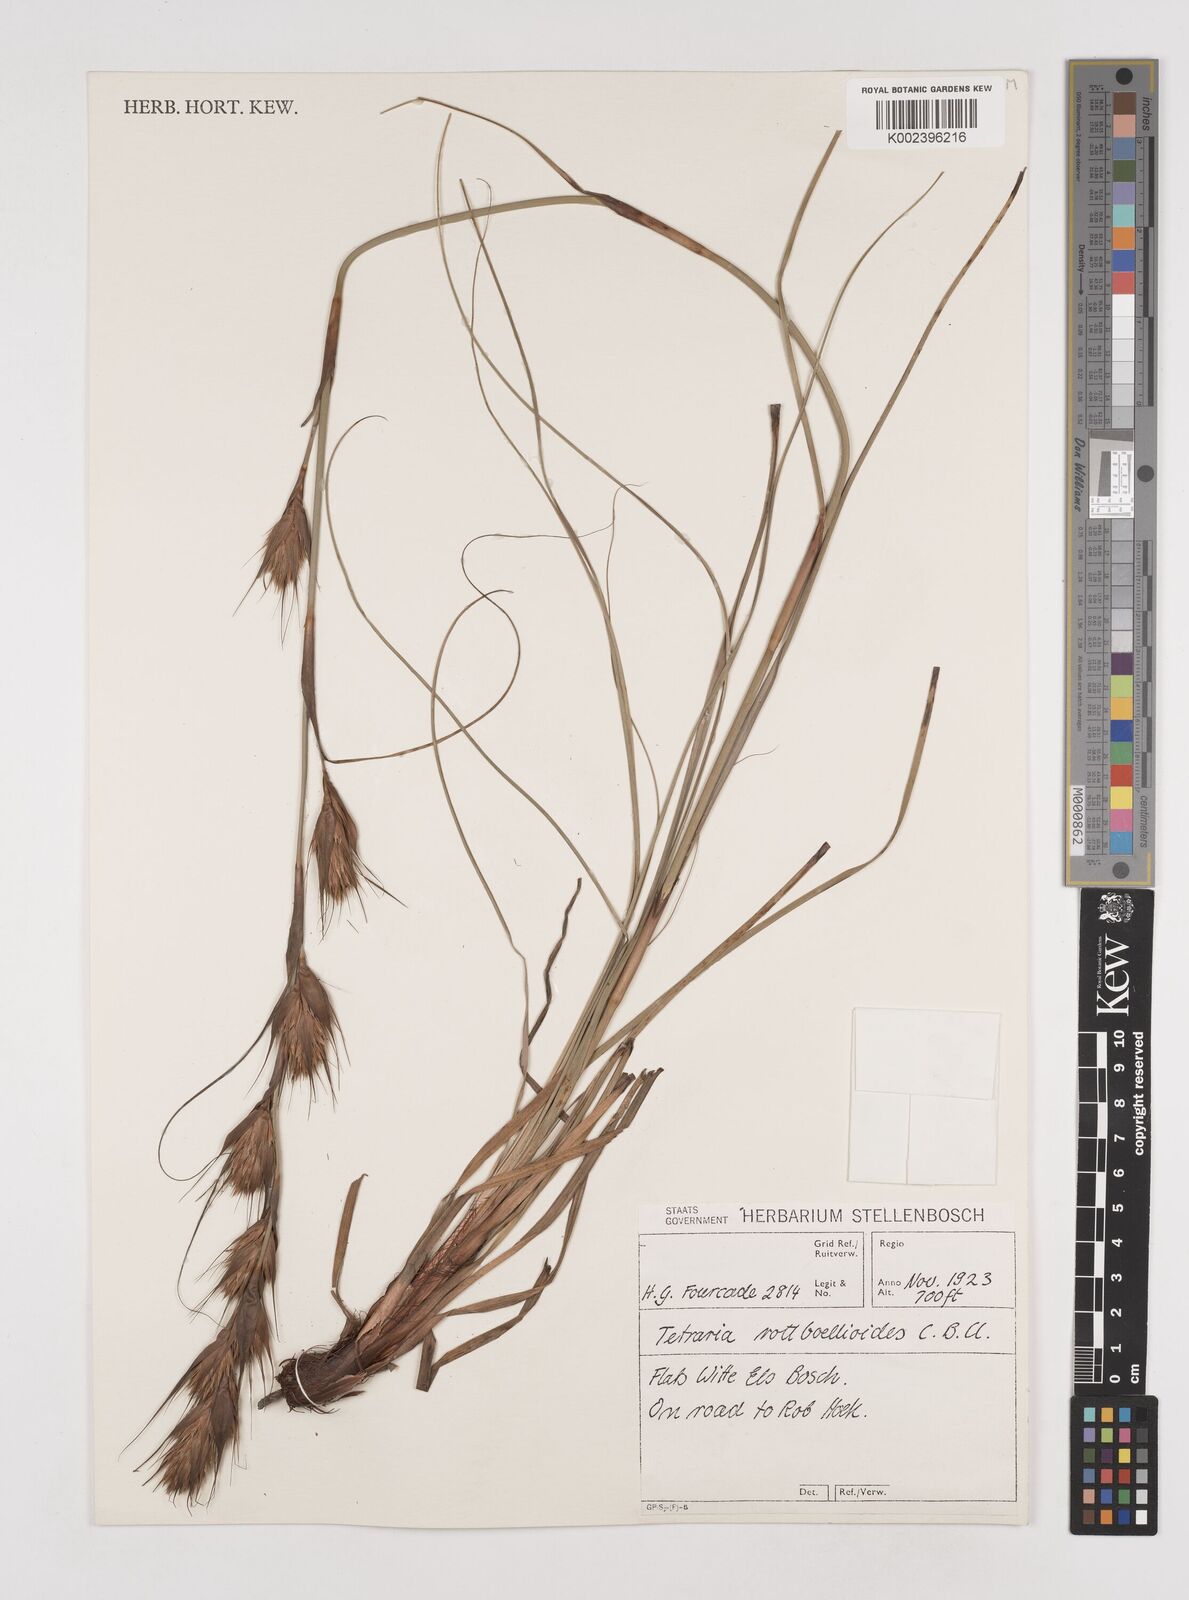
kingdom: Plantae
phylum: Tracheophyta
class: Liliopsida
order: Poales
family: Cyperaceae
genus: Tetraria
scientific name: Tetraria bromoides
